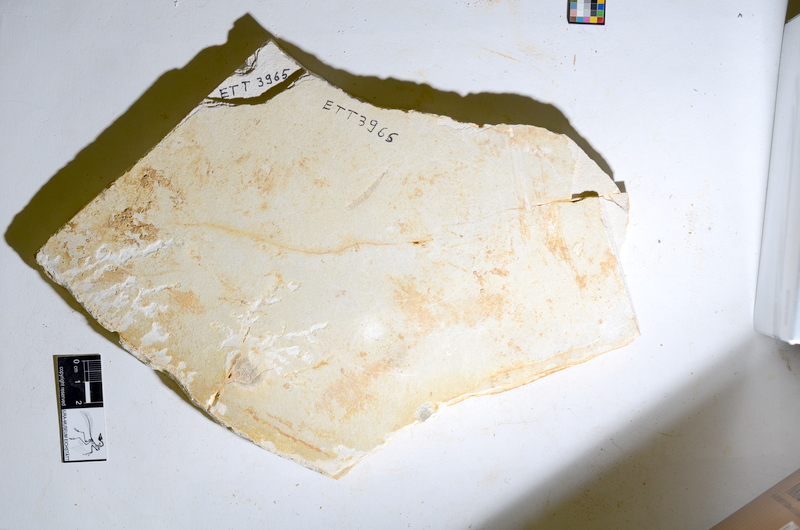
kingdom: Animalia
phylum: Chordata
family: Ascalaboidae
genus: Ebertichthys
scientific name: Ebertichthys ettlingensis
